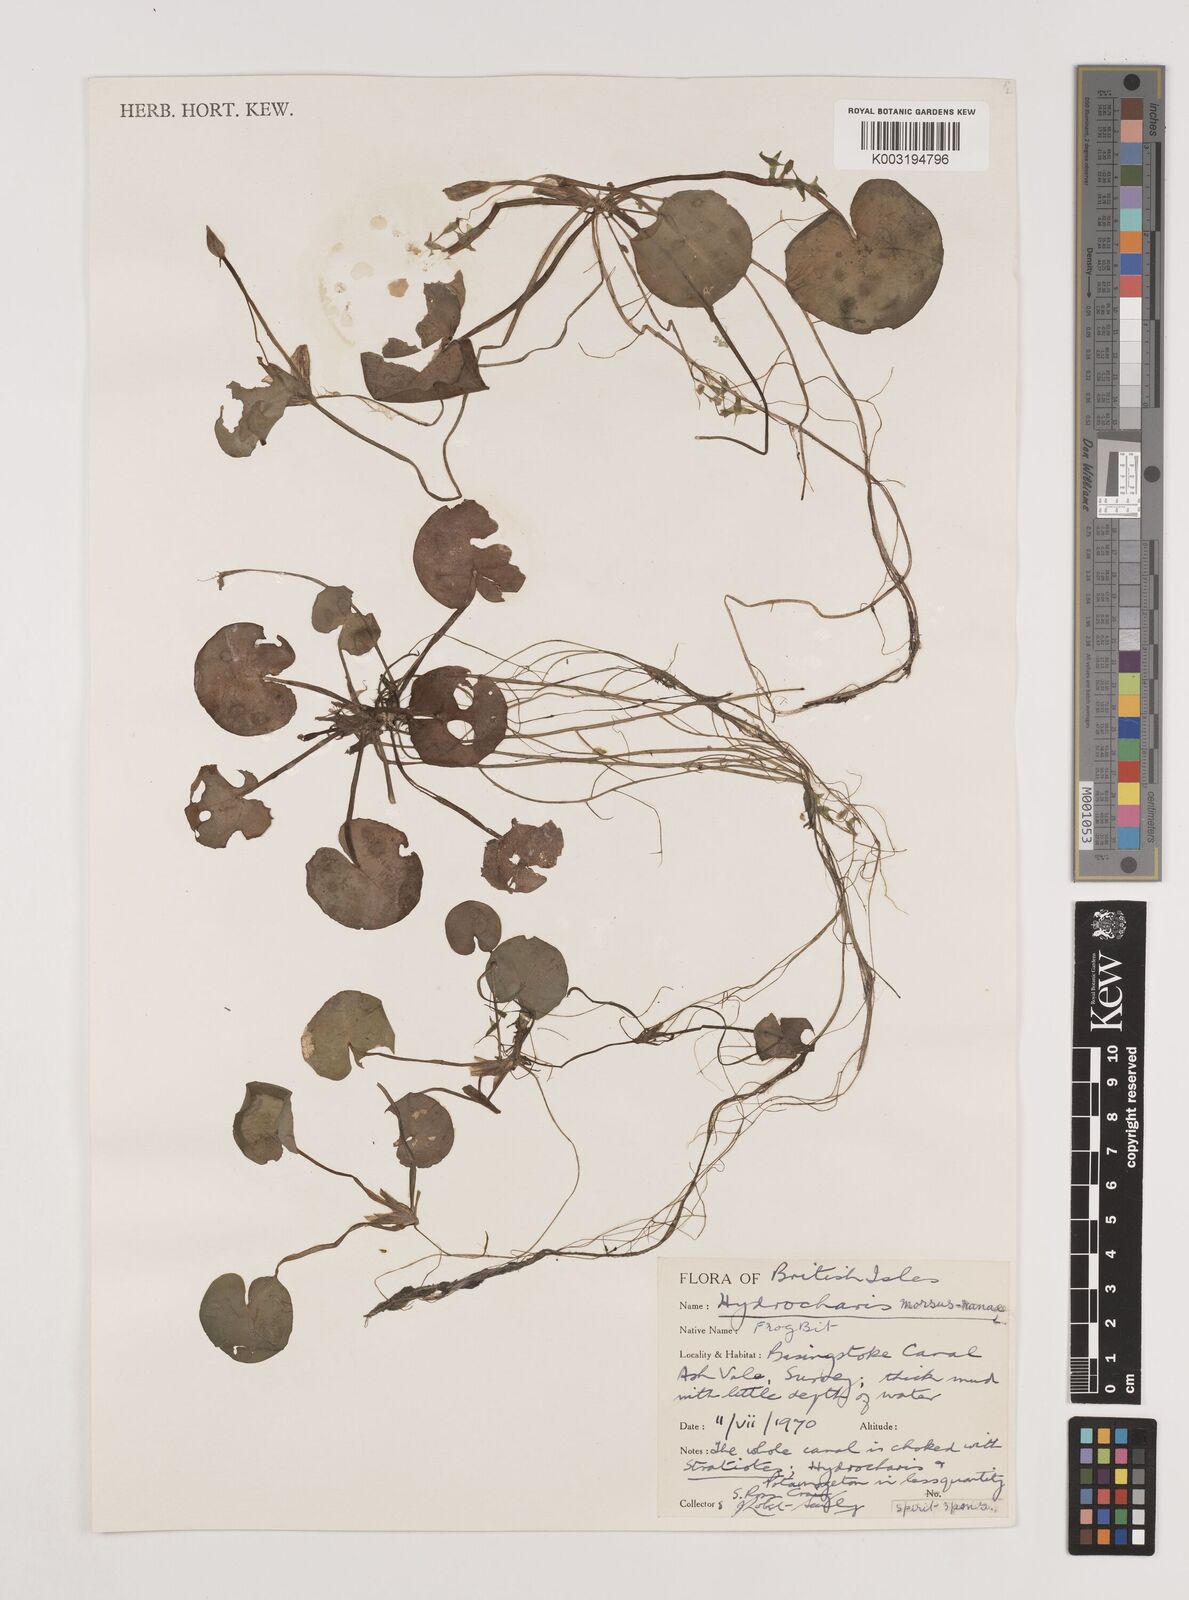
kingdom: Plantae
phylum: Tracheophyta
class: Liliopsida
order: Alismatales
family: Hydrocharitaceae
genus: Hydrocharis
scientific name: Hydrocharis morsus-ranae
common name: Frogbit
